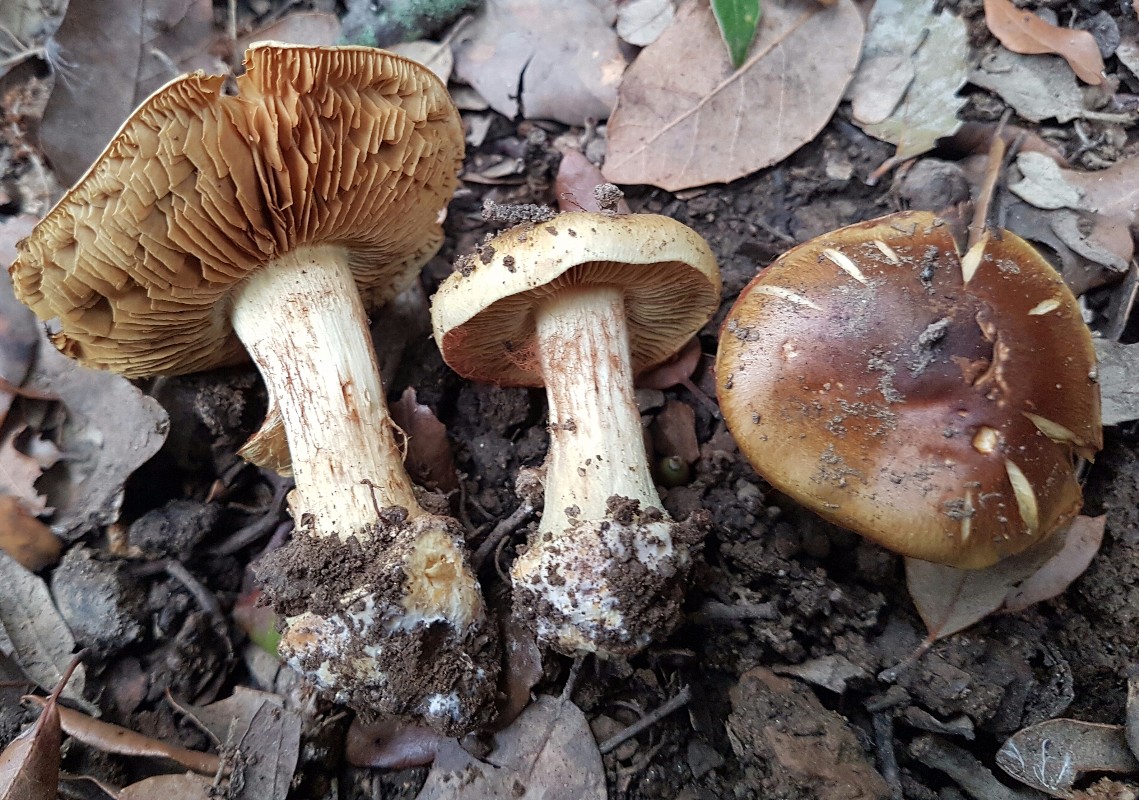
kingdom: Fungi
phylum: Basidiomycota
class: Agaricomycetes
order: Agaricales
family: Cortinariaceae
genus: Calonarius
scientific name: Calonarius xanthochlorus
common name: gulgrøn slørhat
